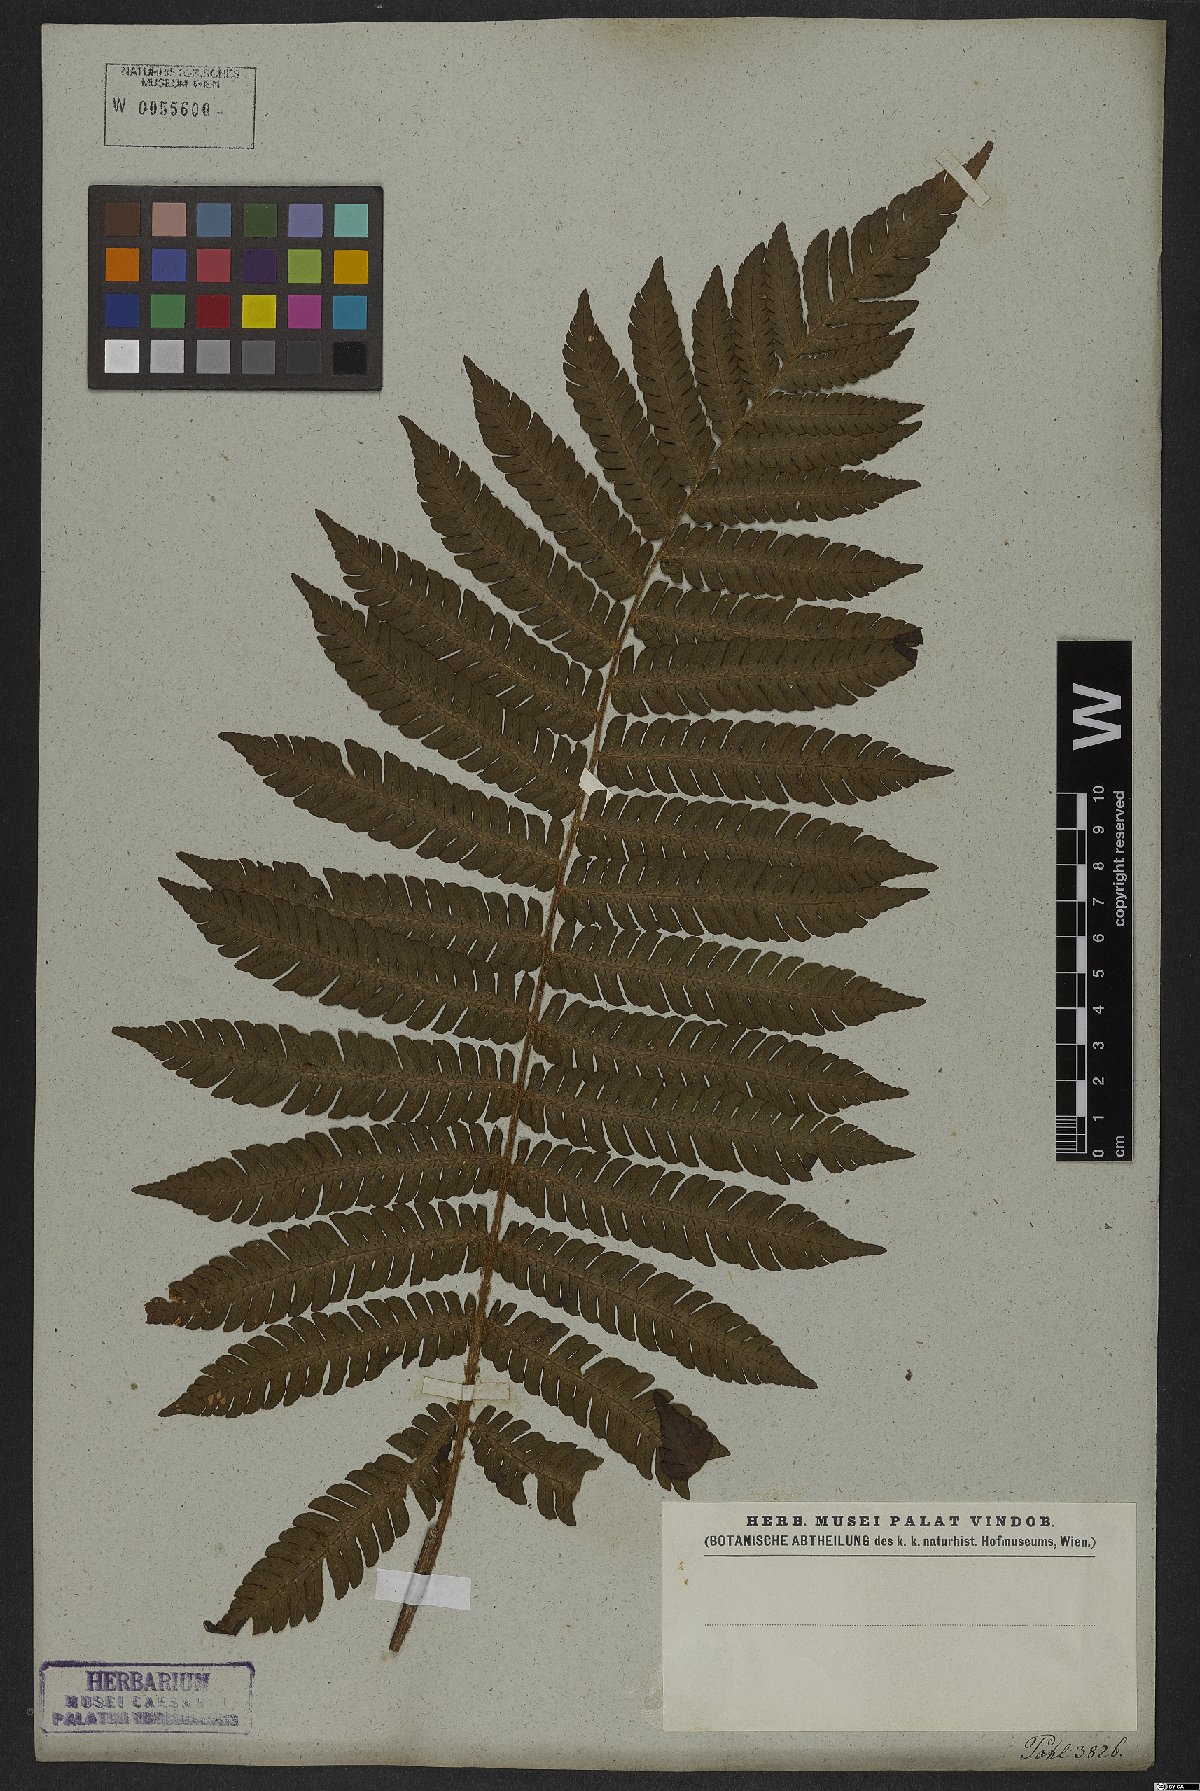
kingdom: Plantae
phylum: Tracheophyta
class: Polypodiopsida
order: Polypodiales
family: Thelypteridaceae
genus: Glaphyropteridopsis
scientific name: Glaphyropteridopsis erubescens
